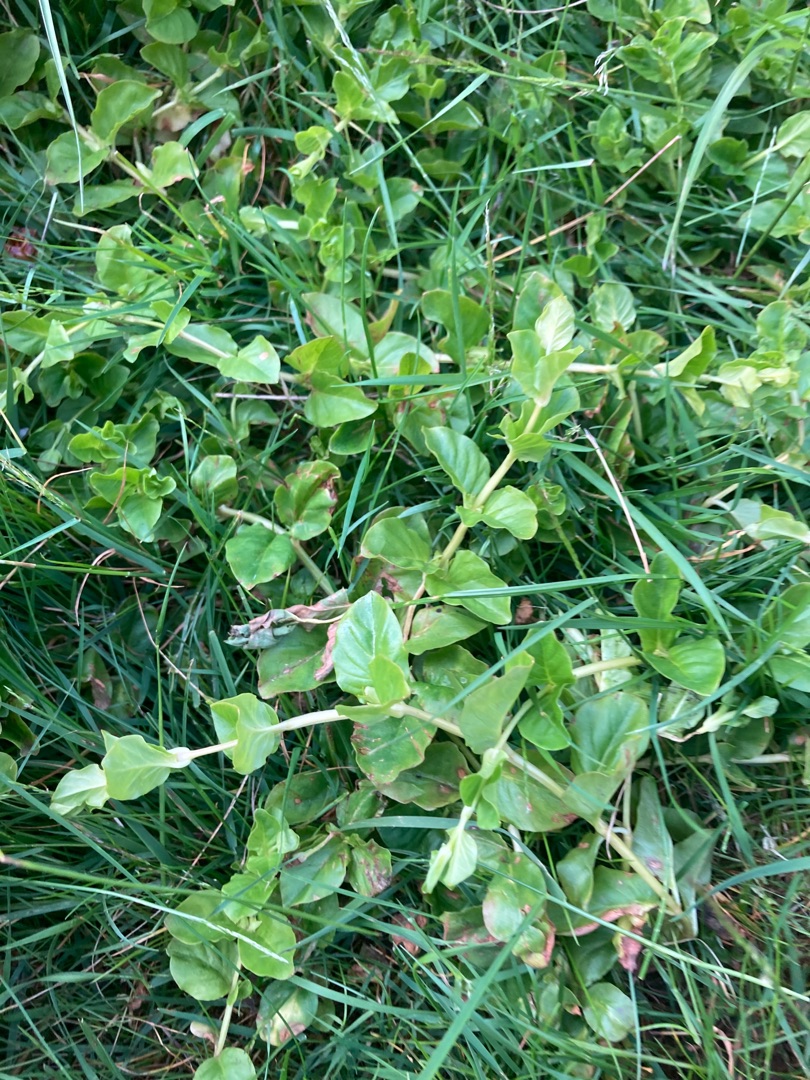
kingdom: Plantae
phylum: Tracheophyta
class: Magnoliopsida
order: Ericales
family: Primulaceae
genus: Lysimachia
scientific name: Lysimachia nummularia
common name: Pengebladet fredløs
